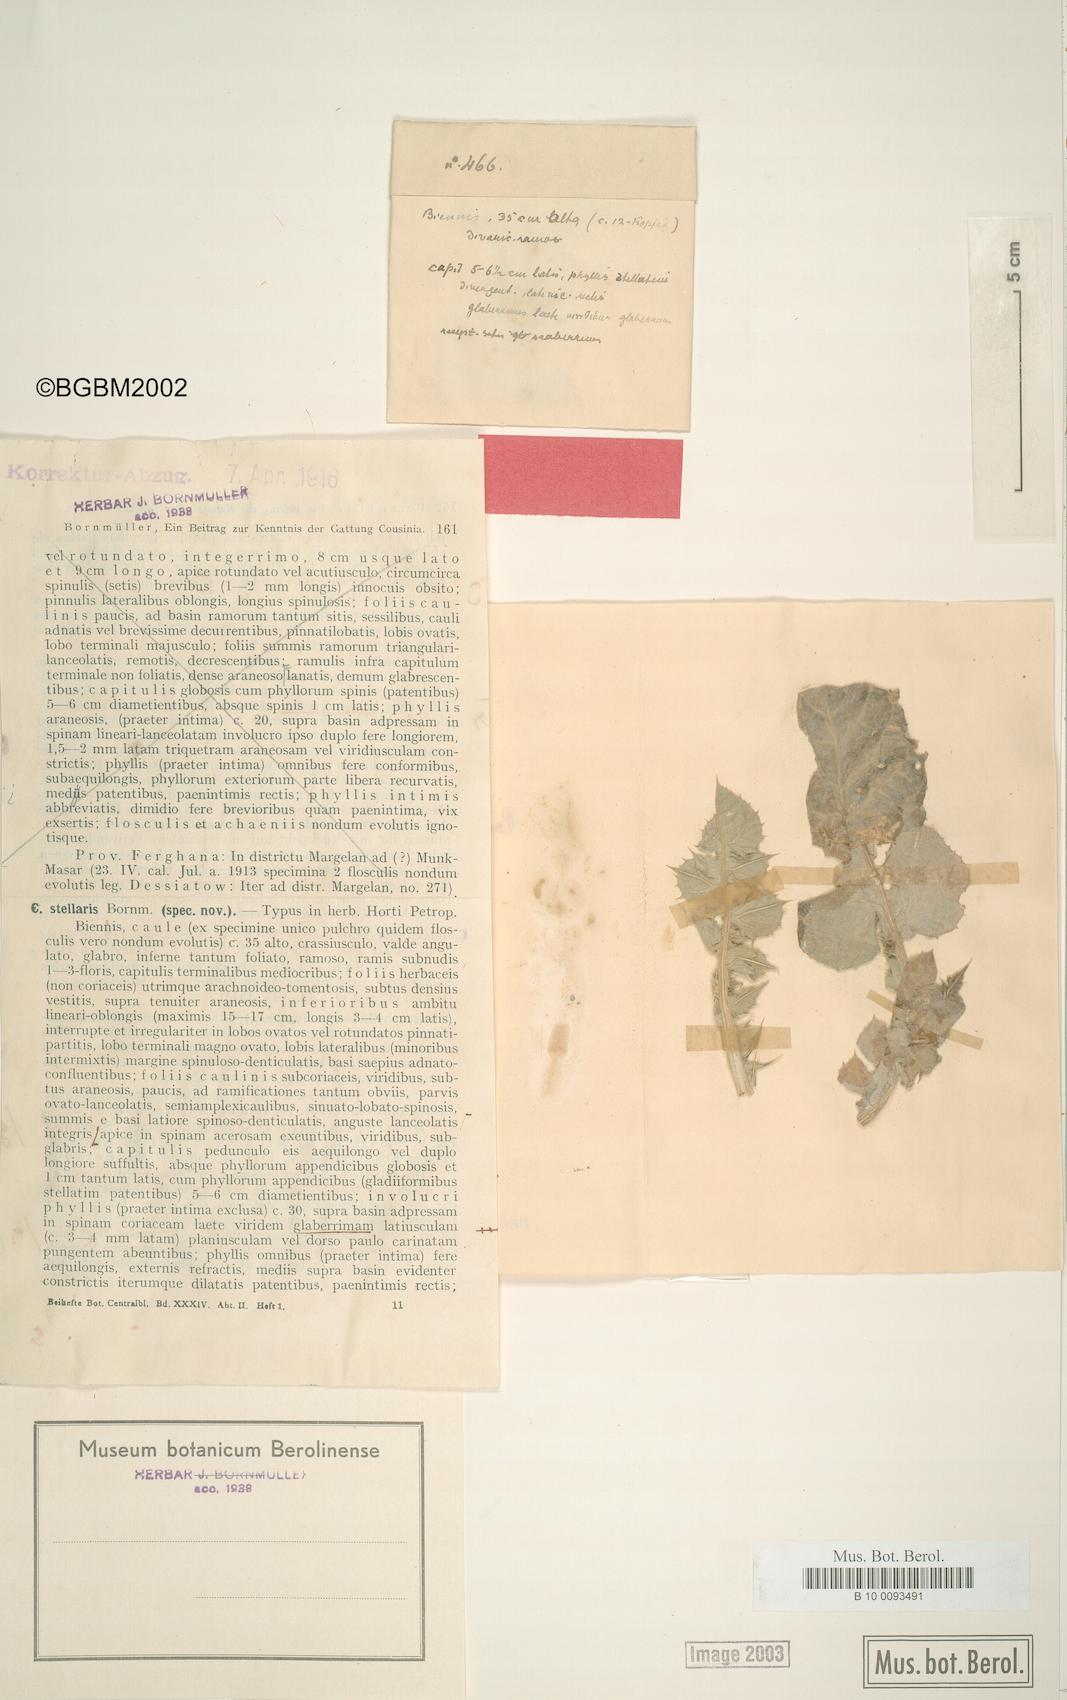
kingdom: Plantae
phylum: Tracheophyta
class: Magnoliopsida
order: Asterales
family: Asteraceae
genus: Cousinia
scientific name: Cousinia stellaris
